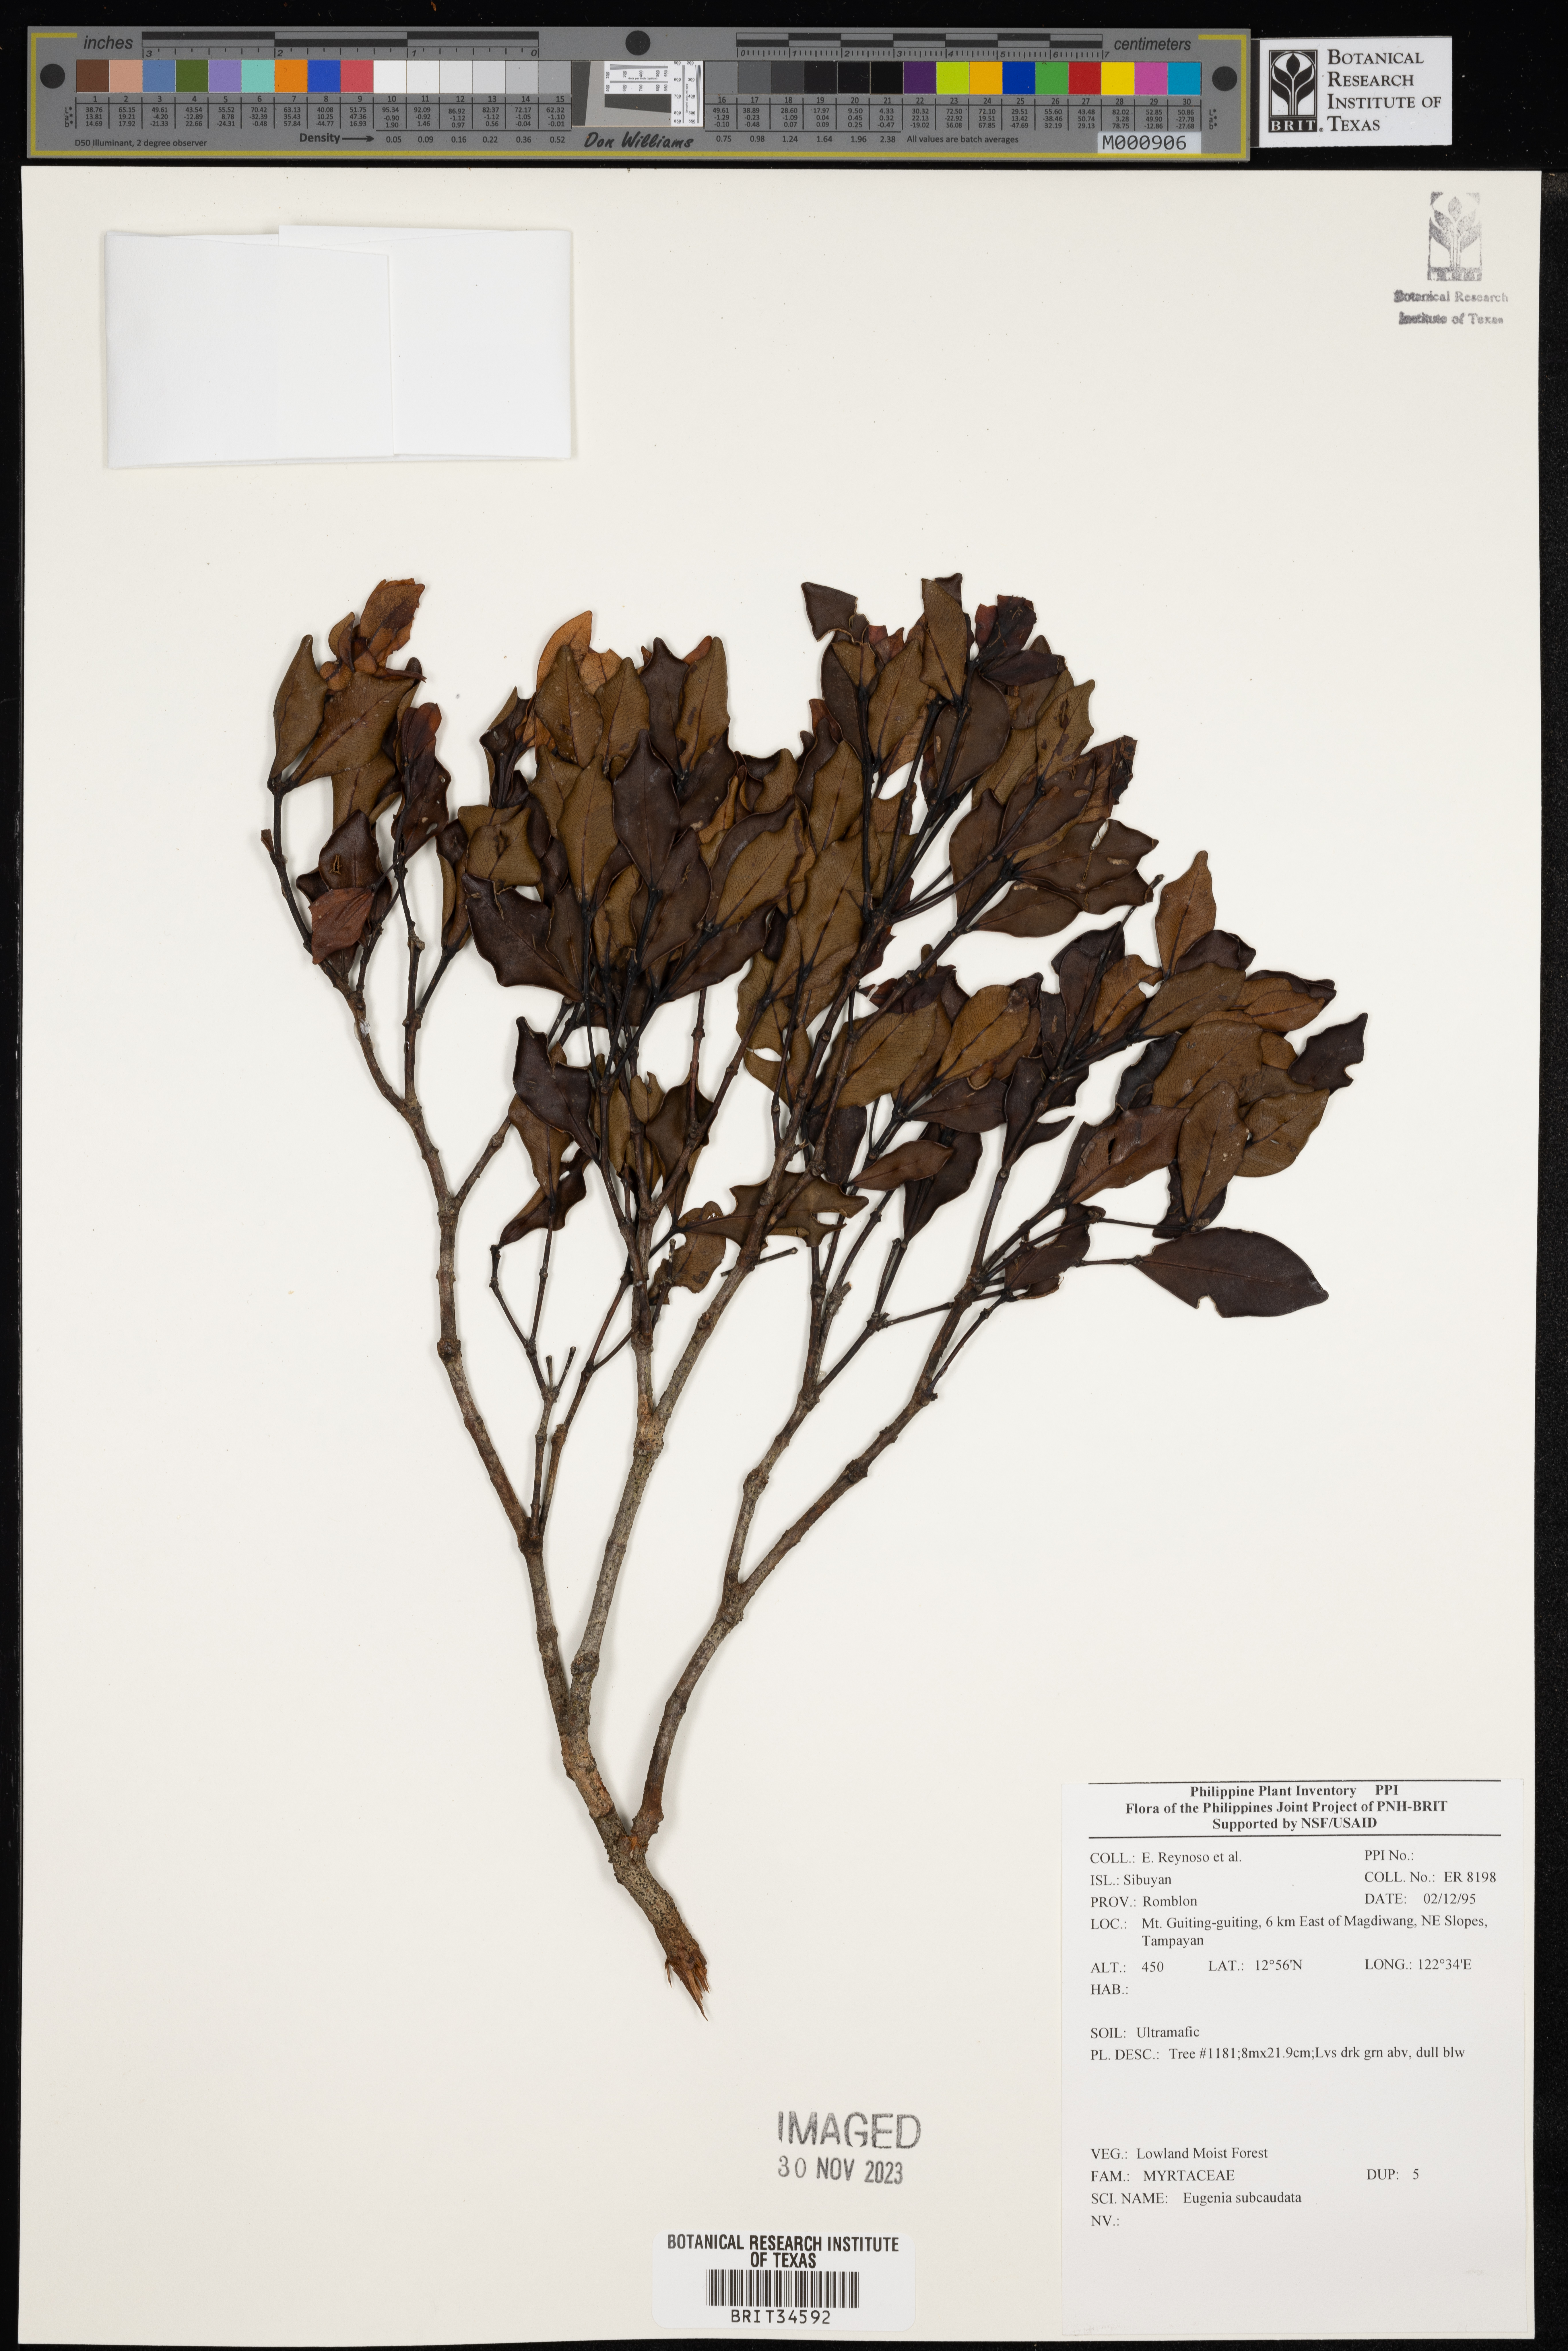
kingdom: Plantae
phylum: Tracheophyta
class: Magnoliopsida
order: Myrtales
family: Myrtaceae
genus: Eugenia
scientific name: Eugenia
